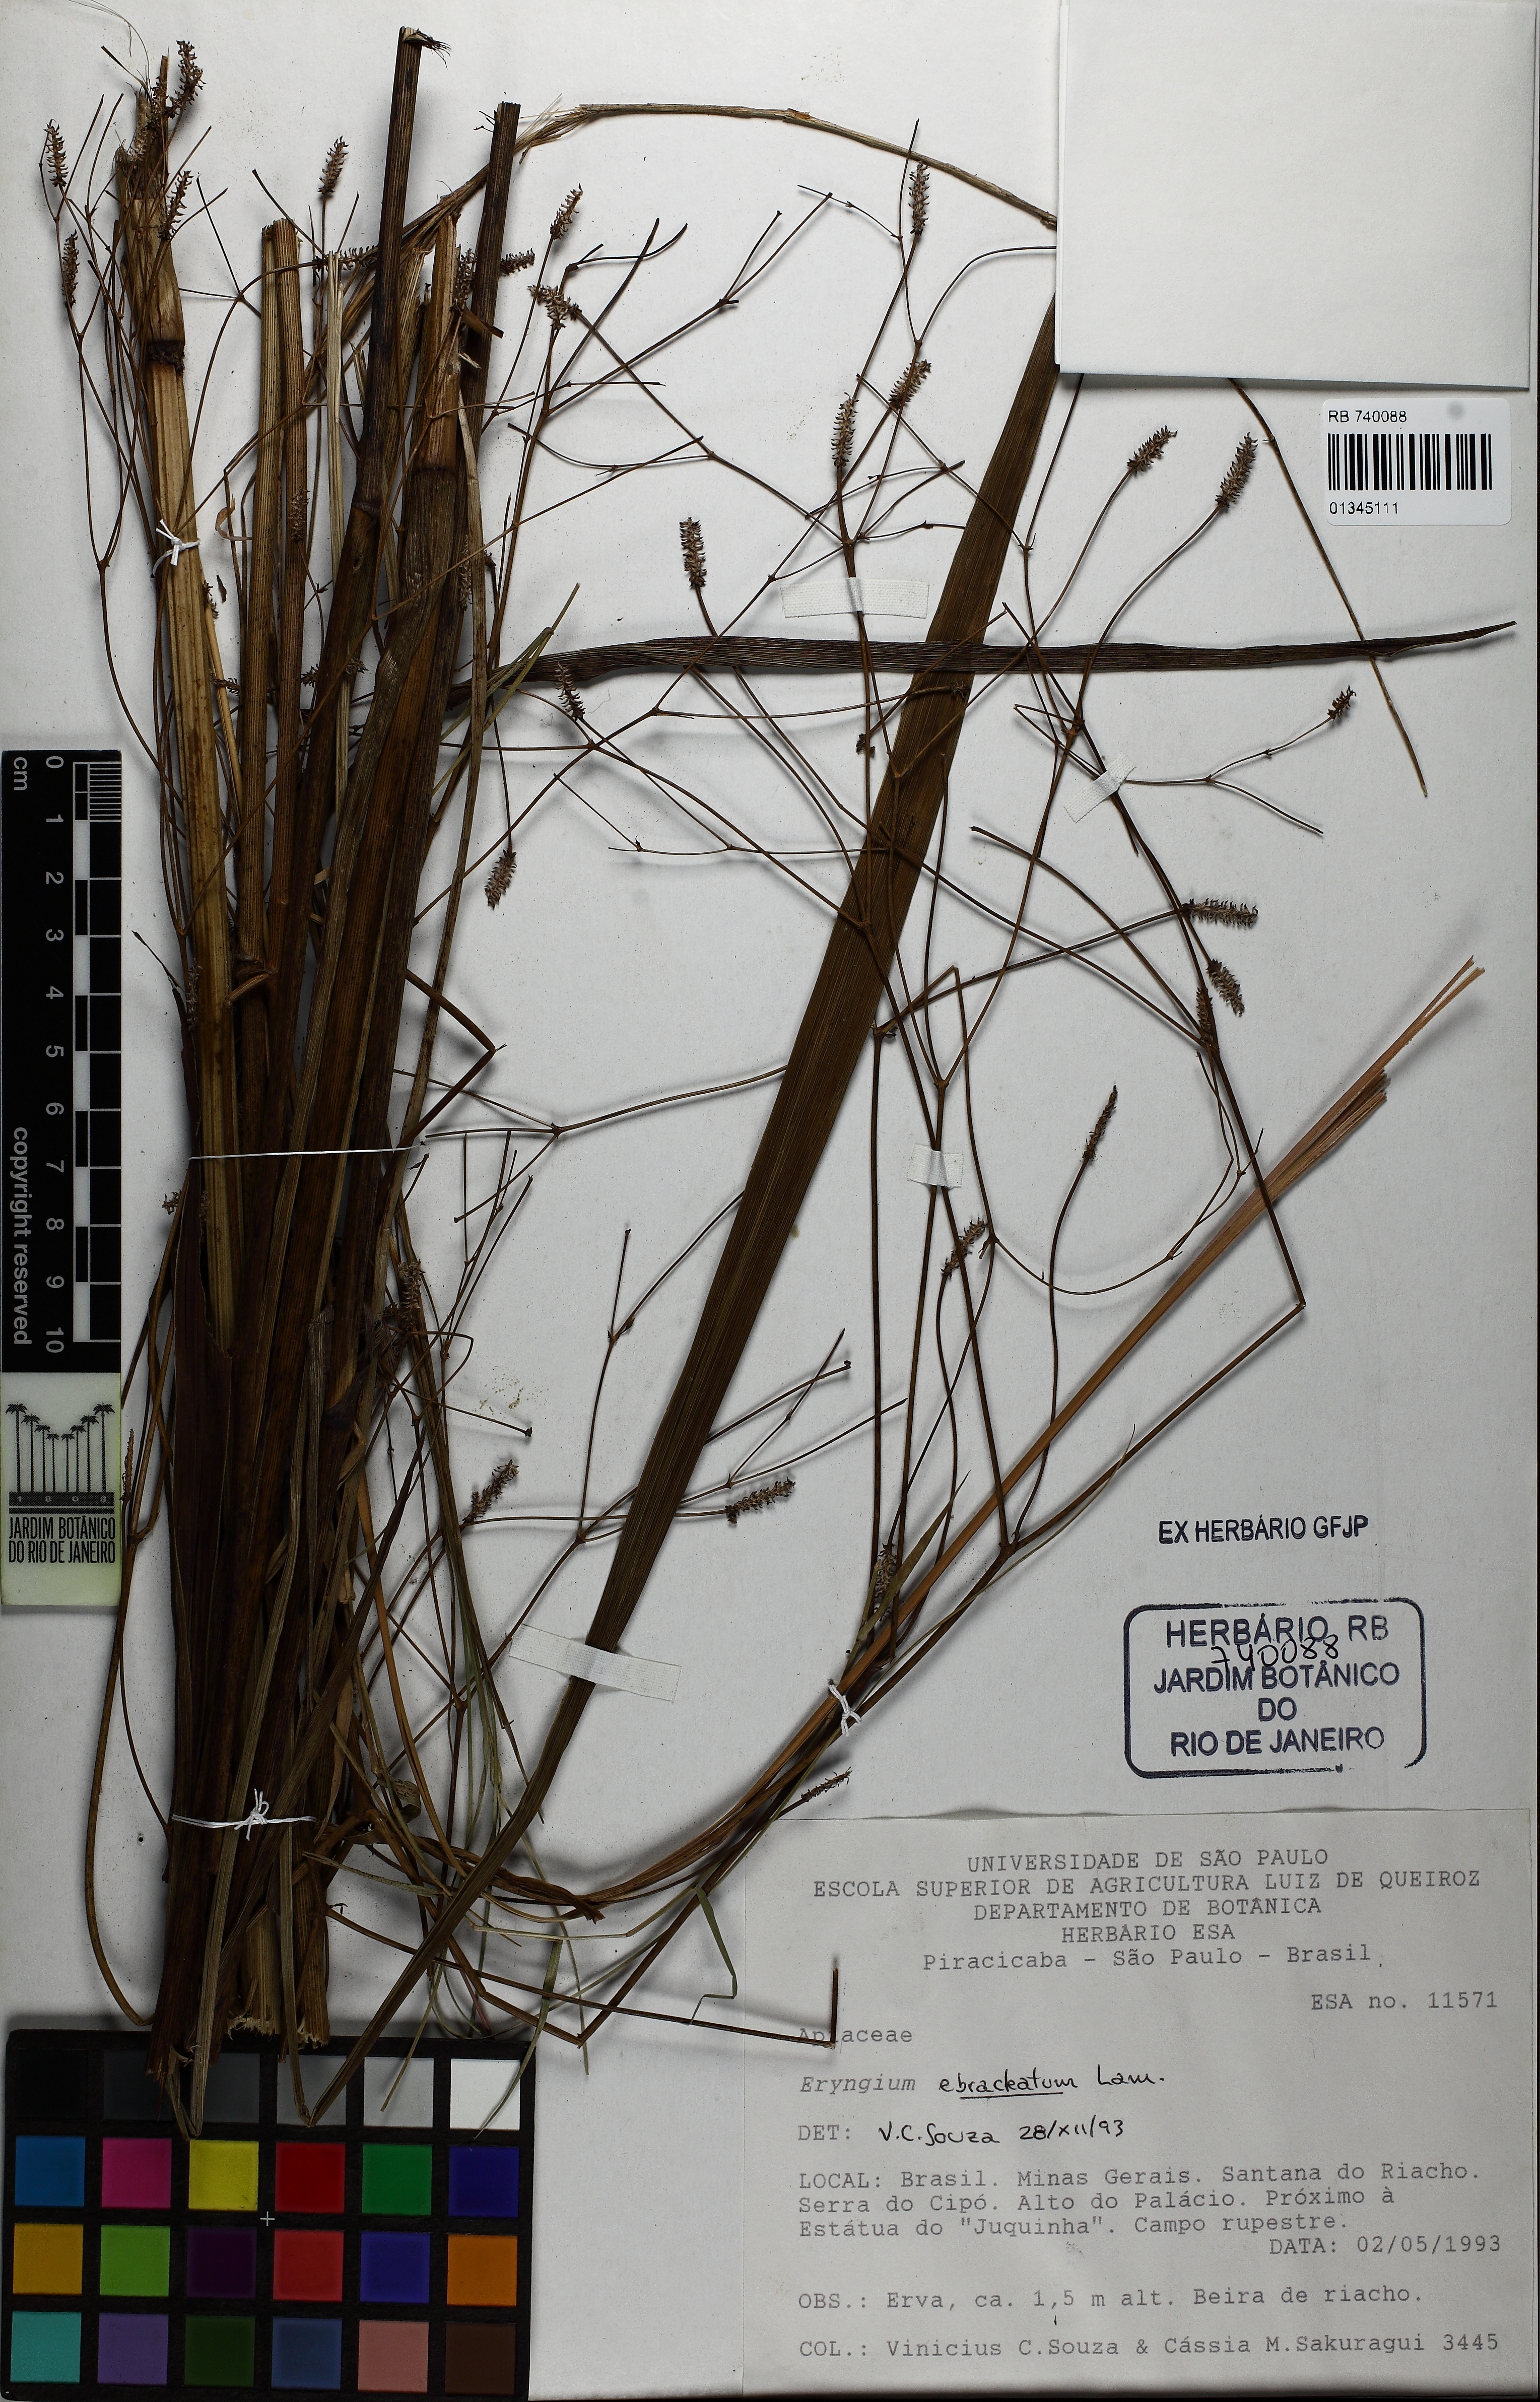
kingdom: Plantae
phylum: Tracheophyta
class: Magnoliopsida
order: Apiales
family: Apiaceae
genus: Eryngium
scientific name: Eryngium ebracteatum
